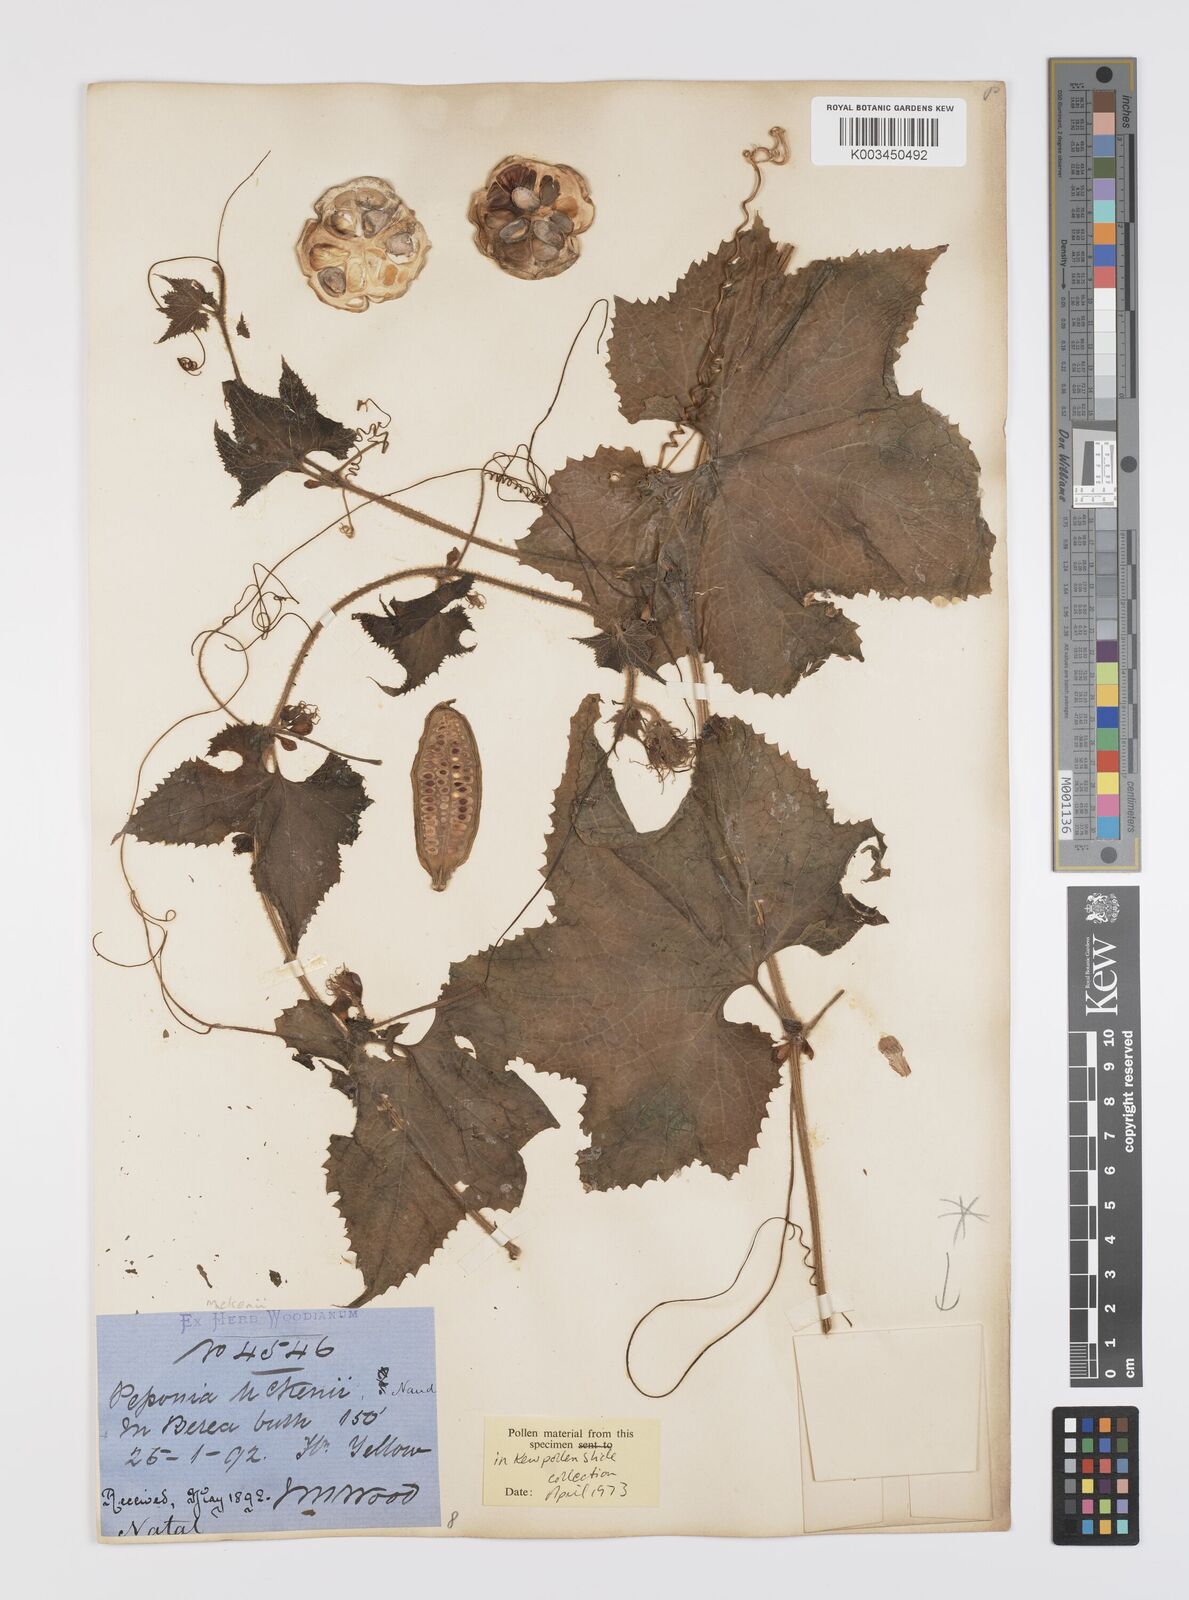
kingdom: Plantae
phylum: Tracheophyta
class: Magnoliopsida
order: Cucurbitales
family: Cucurbitaceae
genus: Peponium
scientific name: Peponium mackenii
